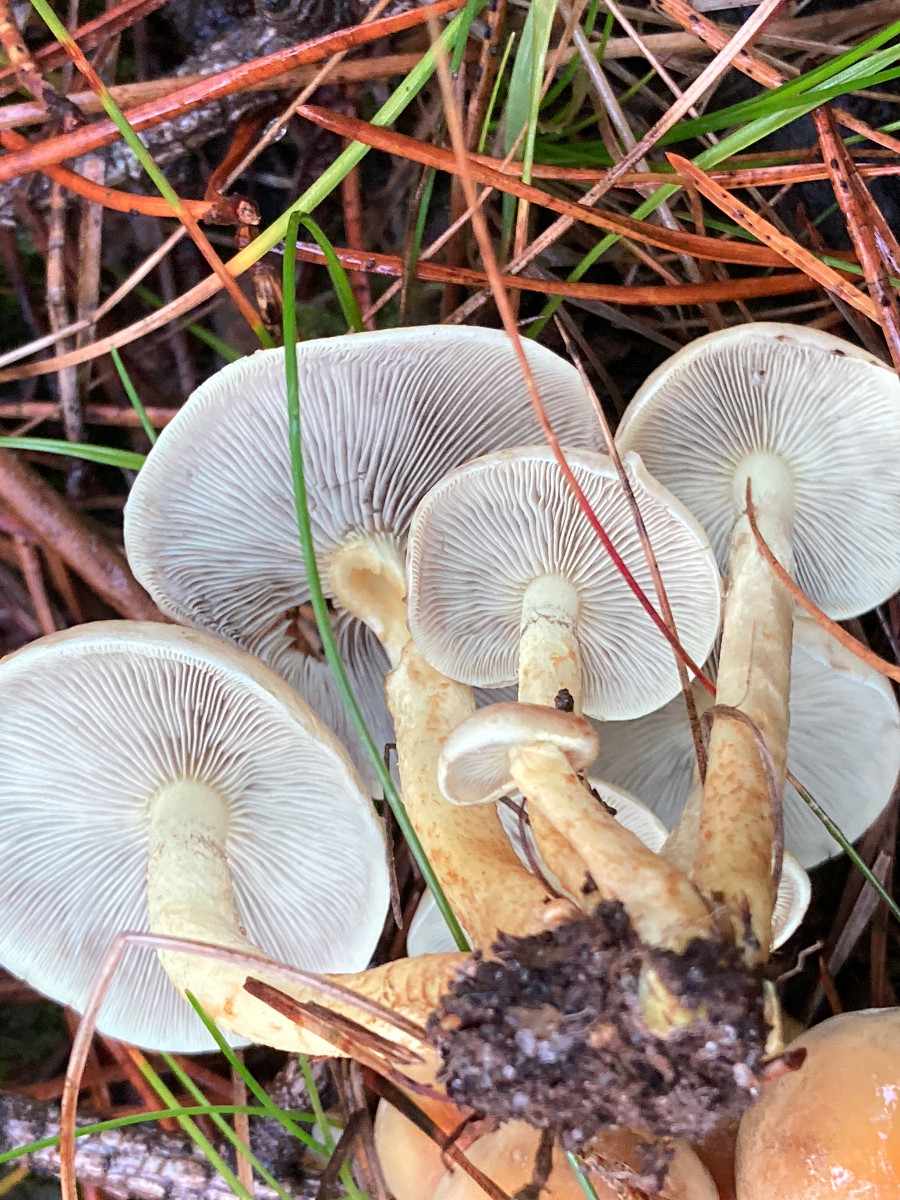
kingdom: Fungi
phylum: Basidiomycota
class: Agaricomycetes
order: Agaricales
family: Strophariaceae
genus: Hypholoma
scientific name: Hypholoma fasciculare
